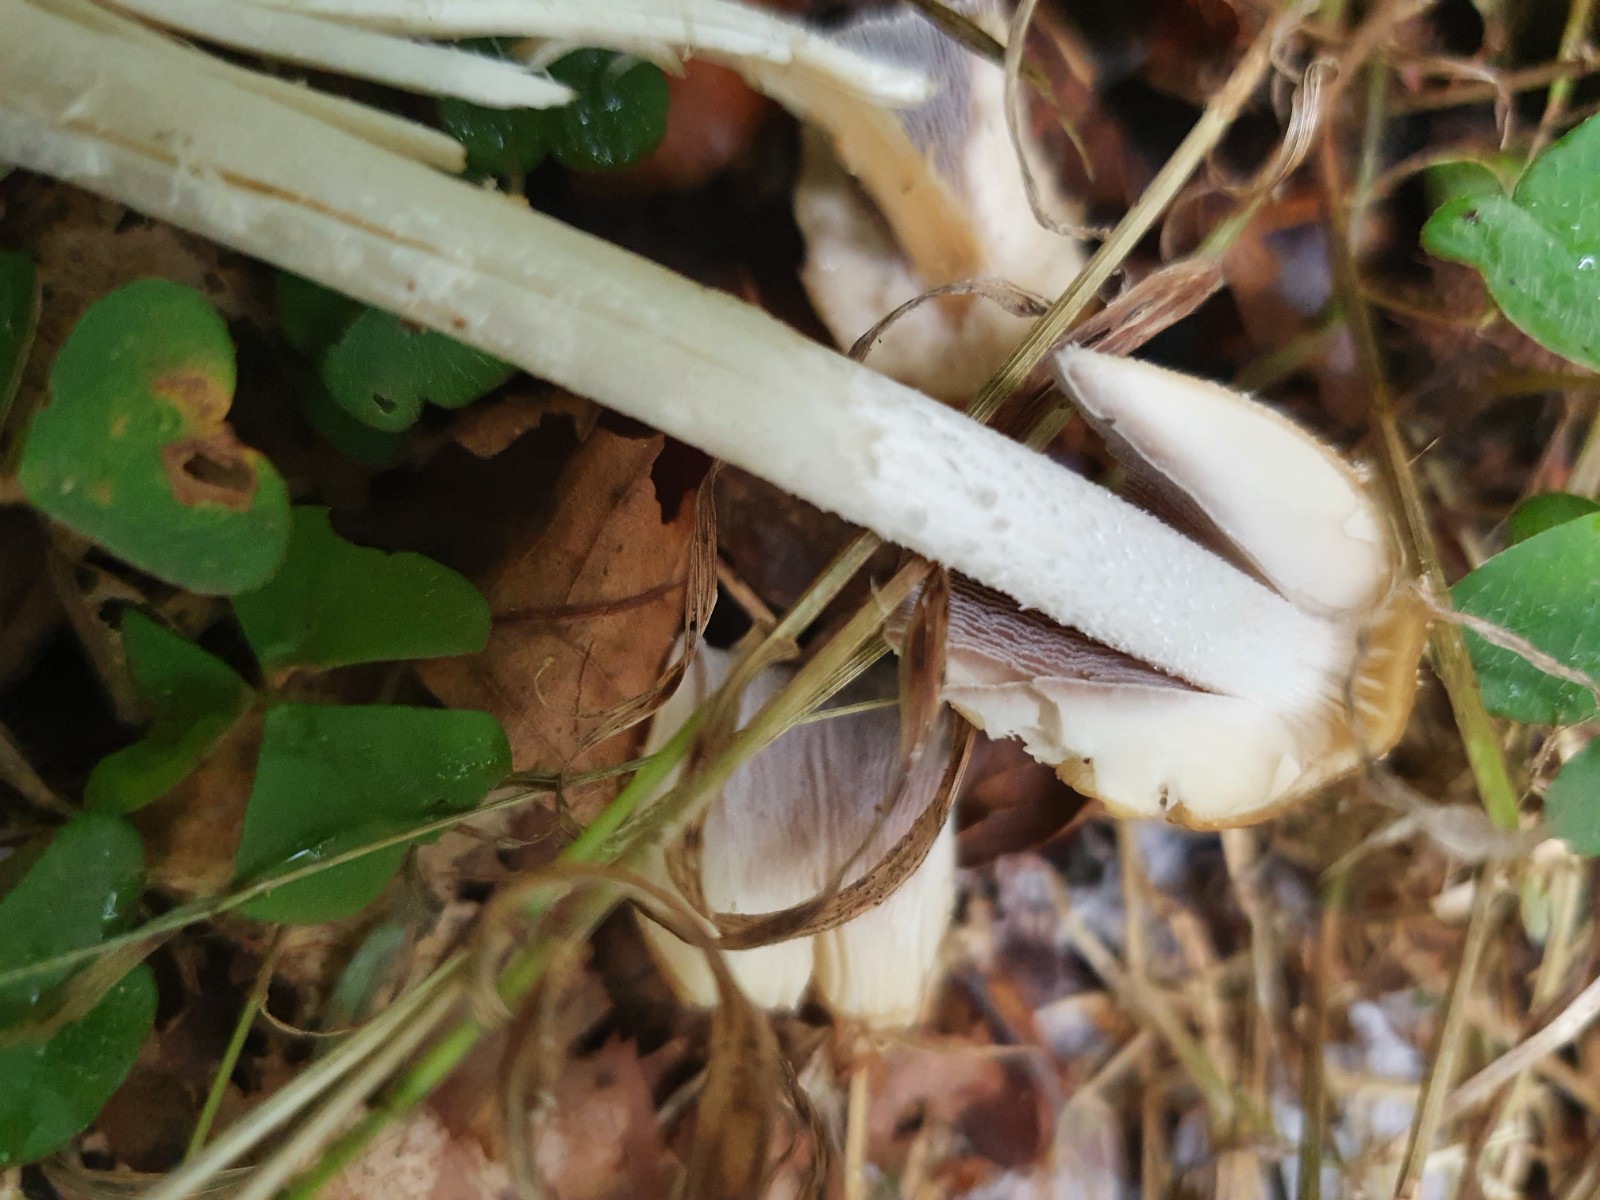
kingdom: Fungi
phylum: Basidiomycota
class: Agaricomycetes
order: Agaricales
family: Psathyrellaceae
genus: Coprinellus
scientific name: Coprinellus micaceus
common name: glimmer-blækhat
